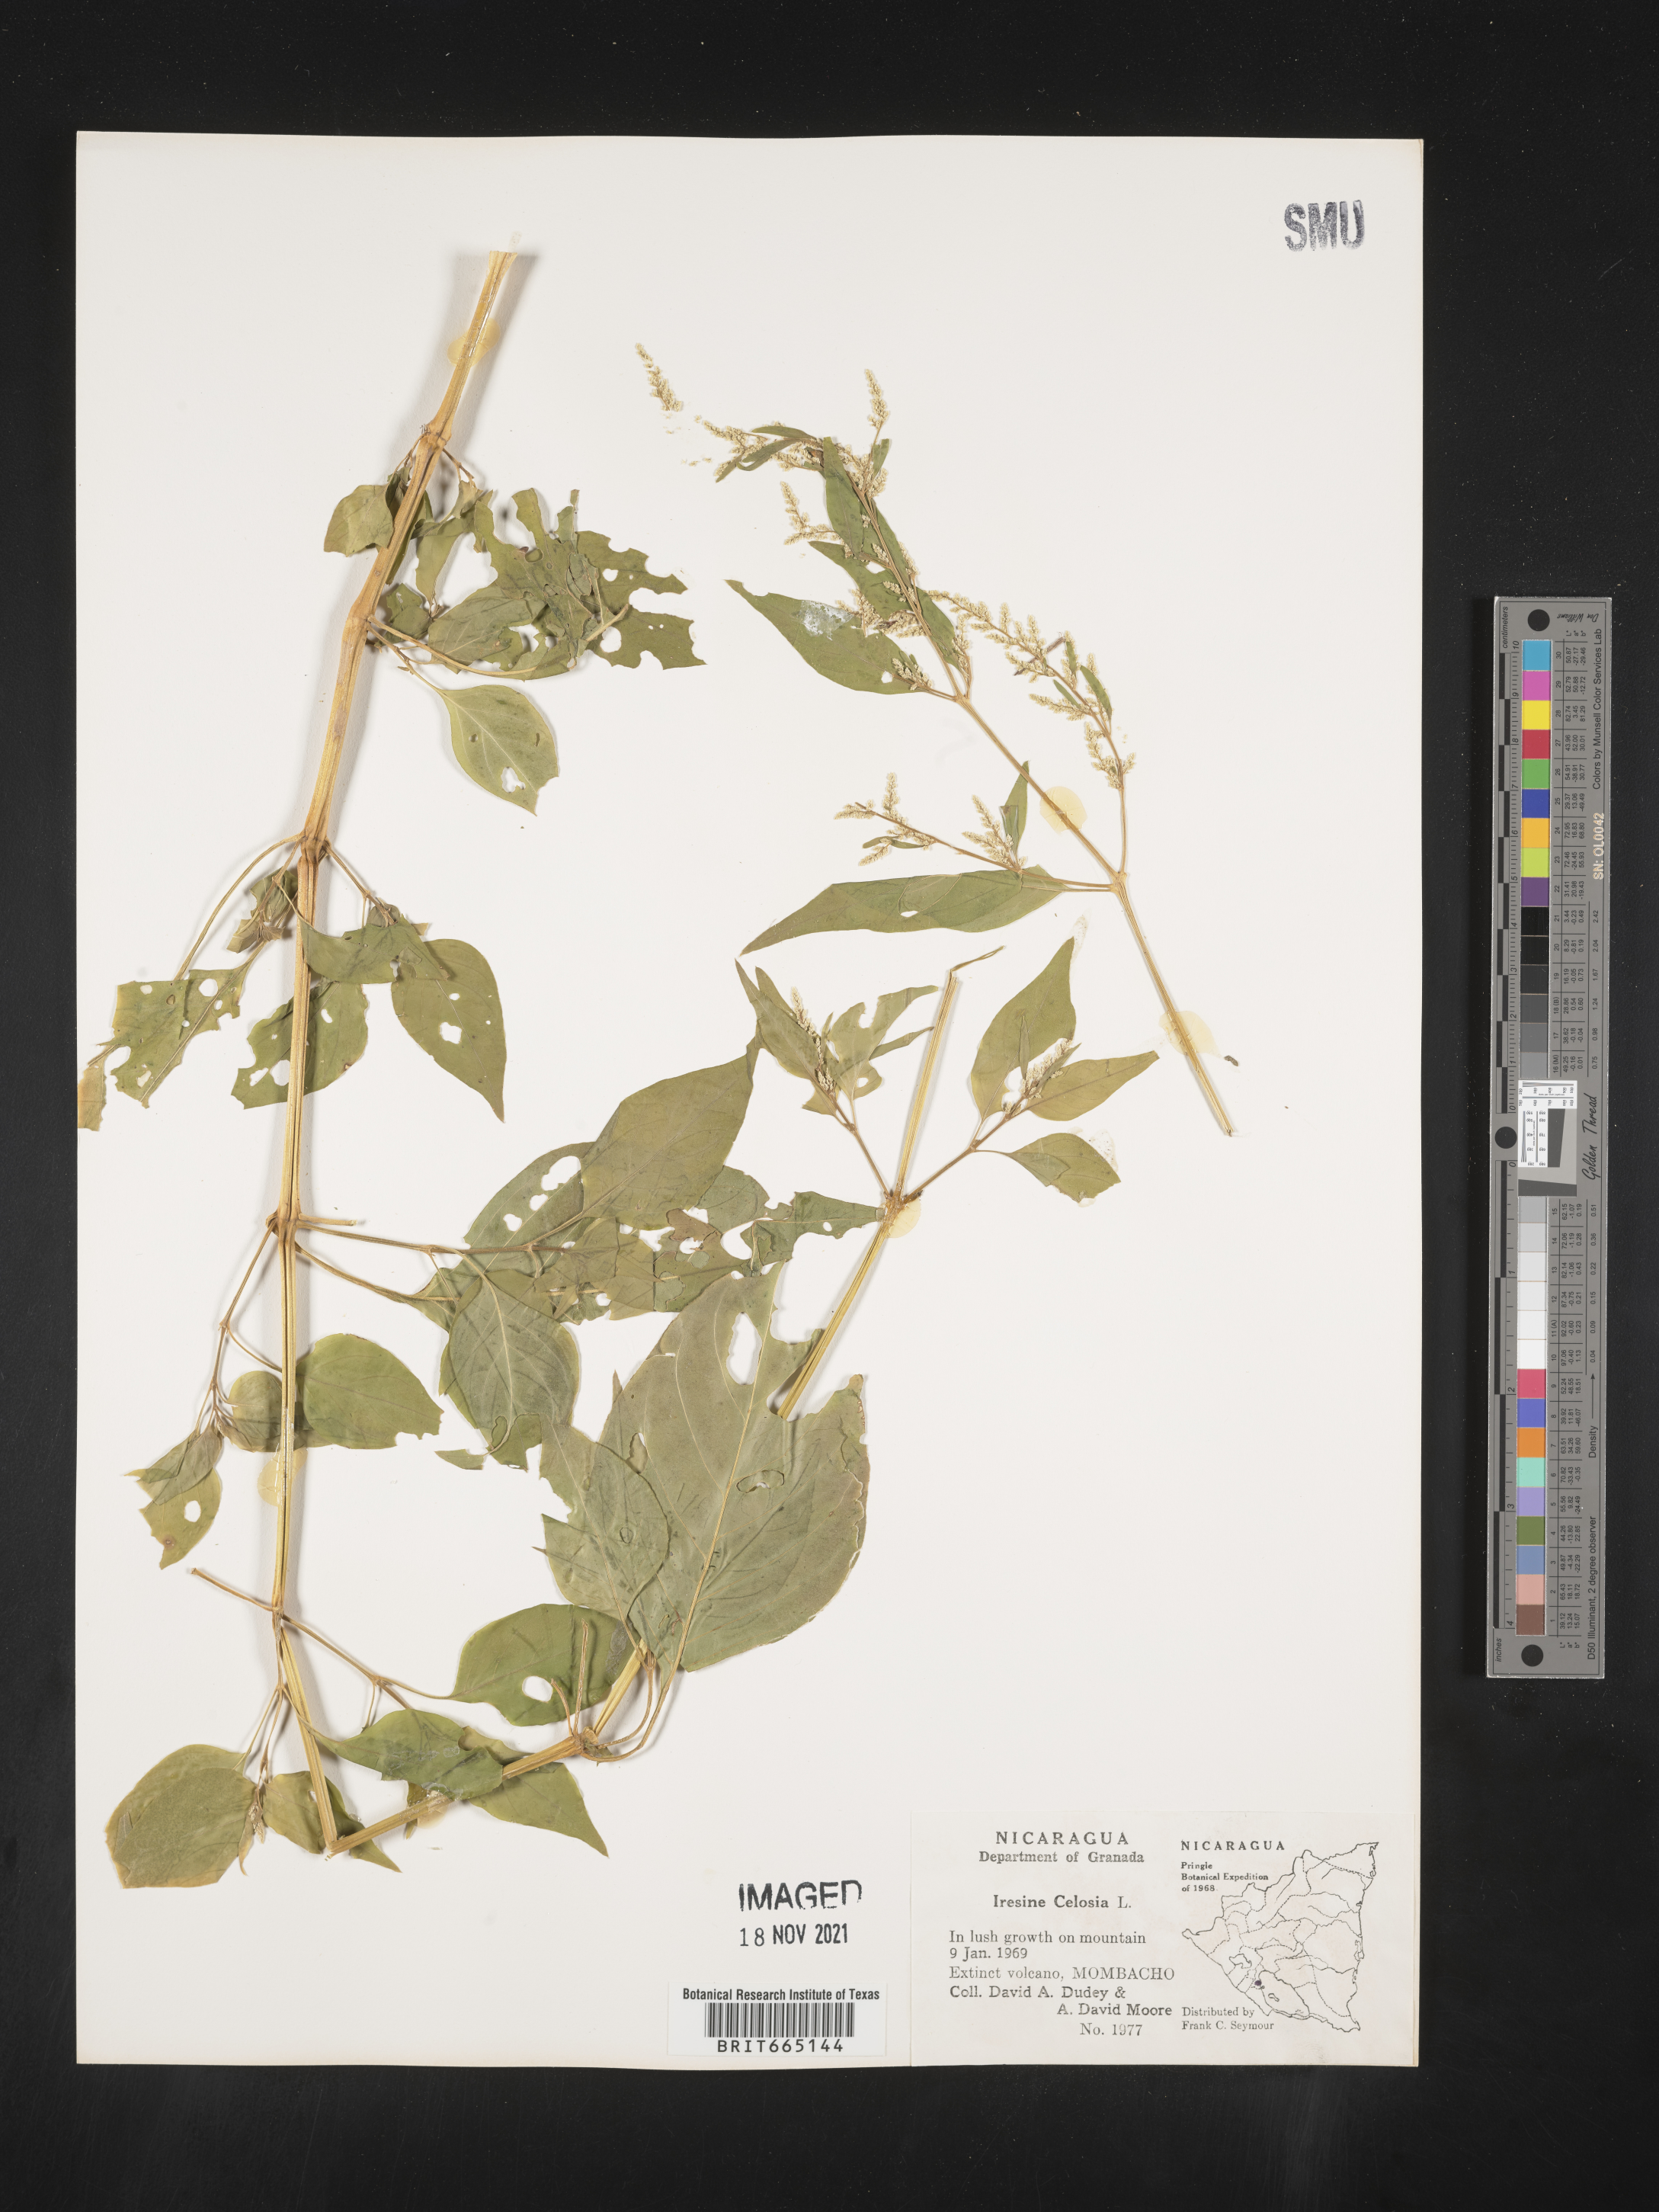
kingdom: Plantae
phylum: Tracheophyta
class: Magnoliopsida
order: Caryophyllales
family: Amaranthaceae
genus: Iresine
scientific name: Iresine
